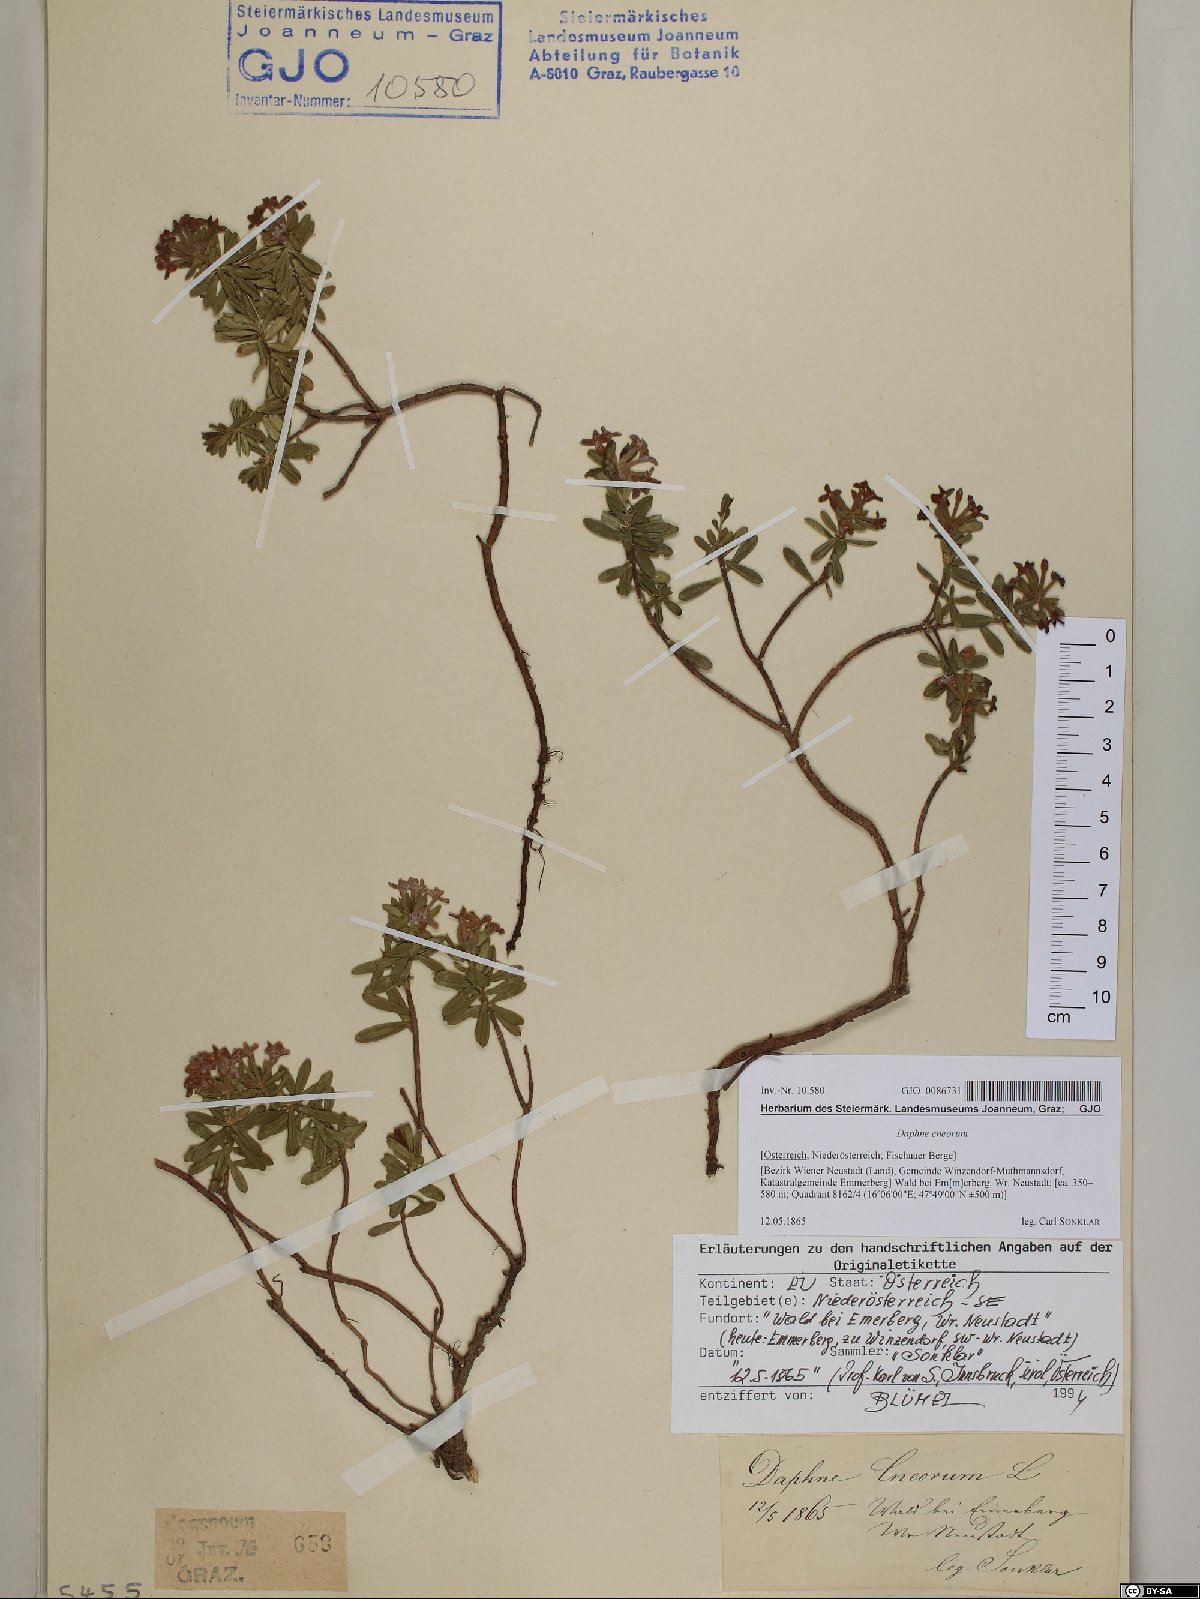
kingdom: Plantae
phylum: Tracheophyta
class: Magnoliopsida
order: Malvales
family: Thymelaeaceae
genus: Daphne
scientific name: Daphne cneorum
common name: Garland-flower
